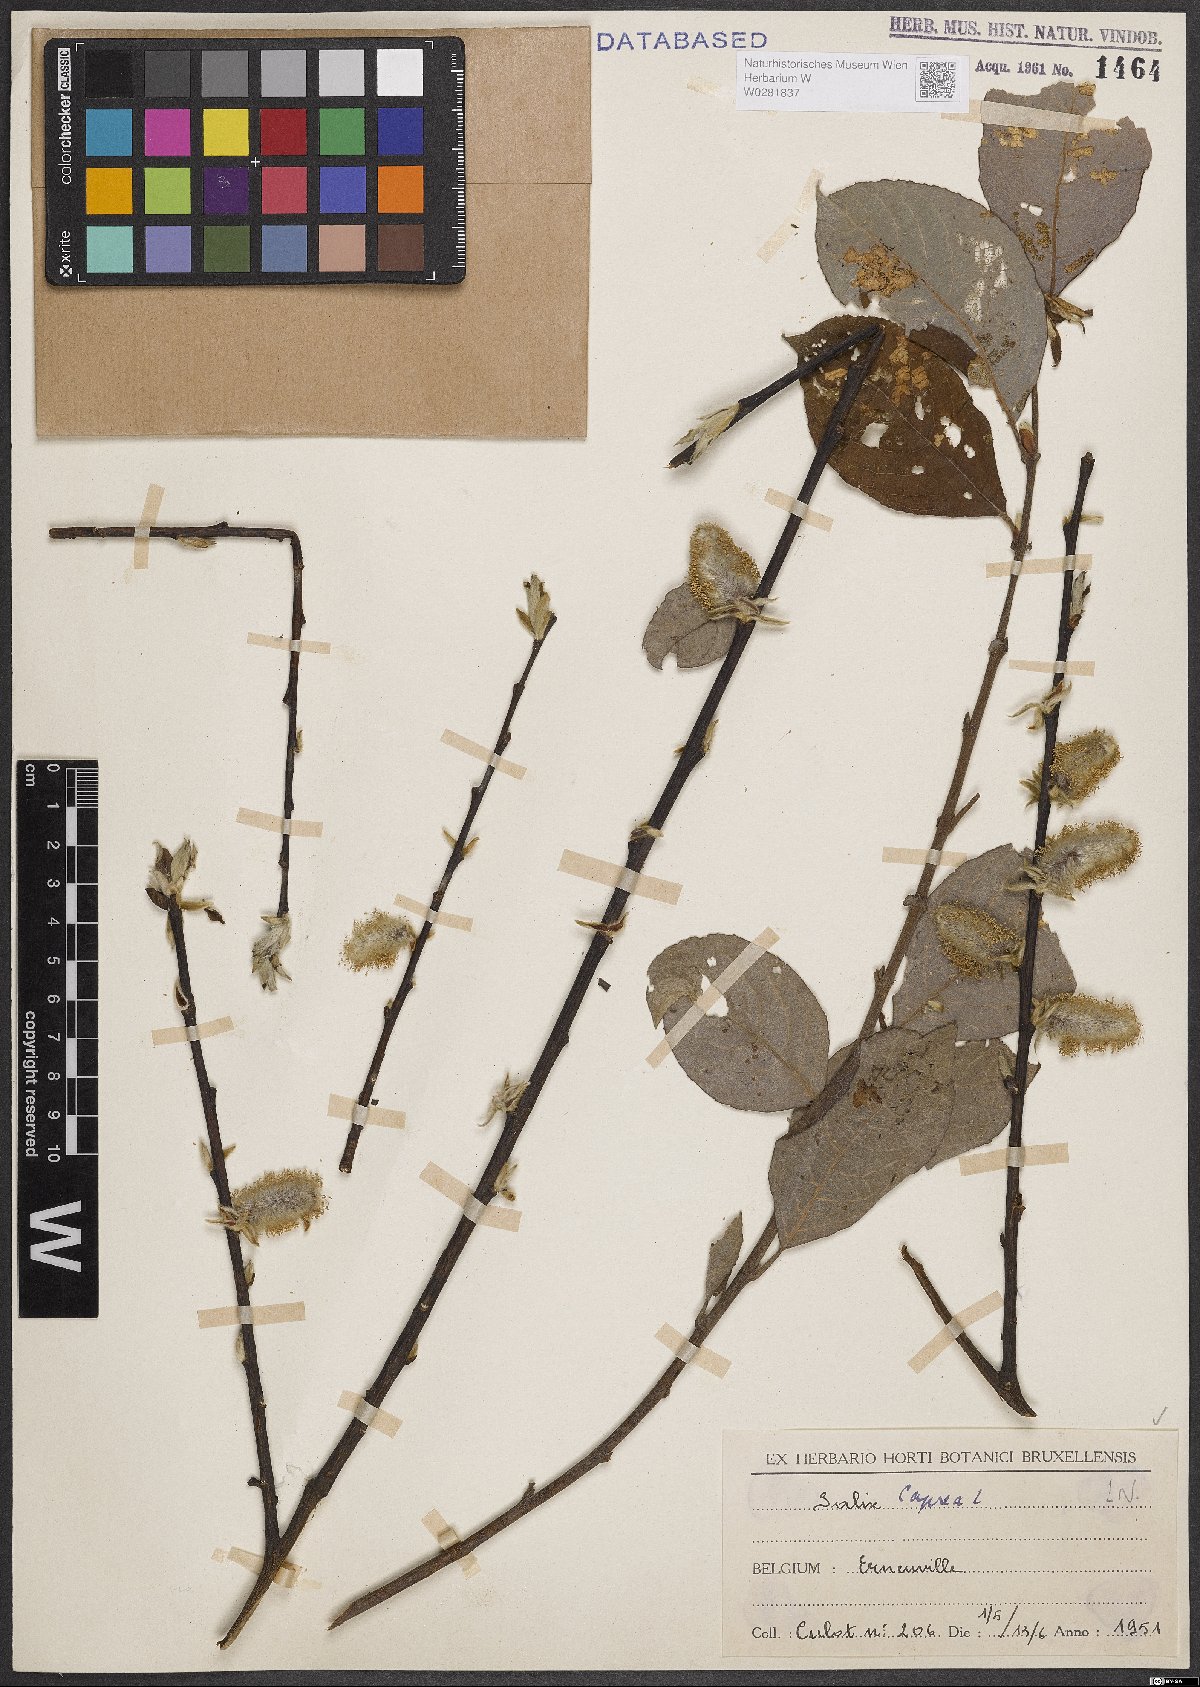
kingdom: Plantae
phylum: Tracheophyta
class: Magnoliopsida
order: Malpighiales
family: Salicaceae
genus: Salix
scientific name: Salix caprea
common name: Goat willow
